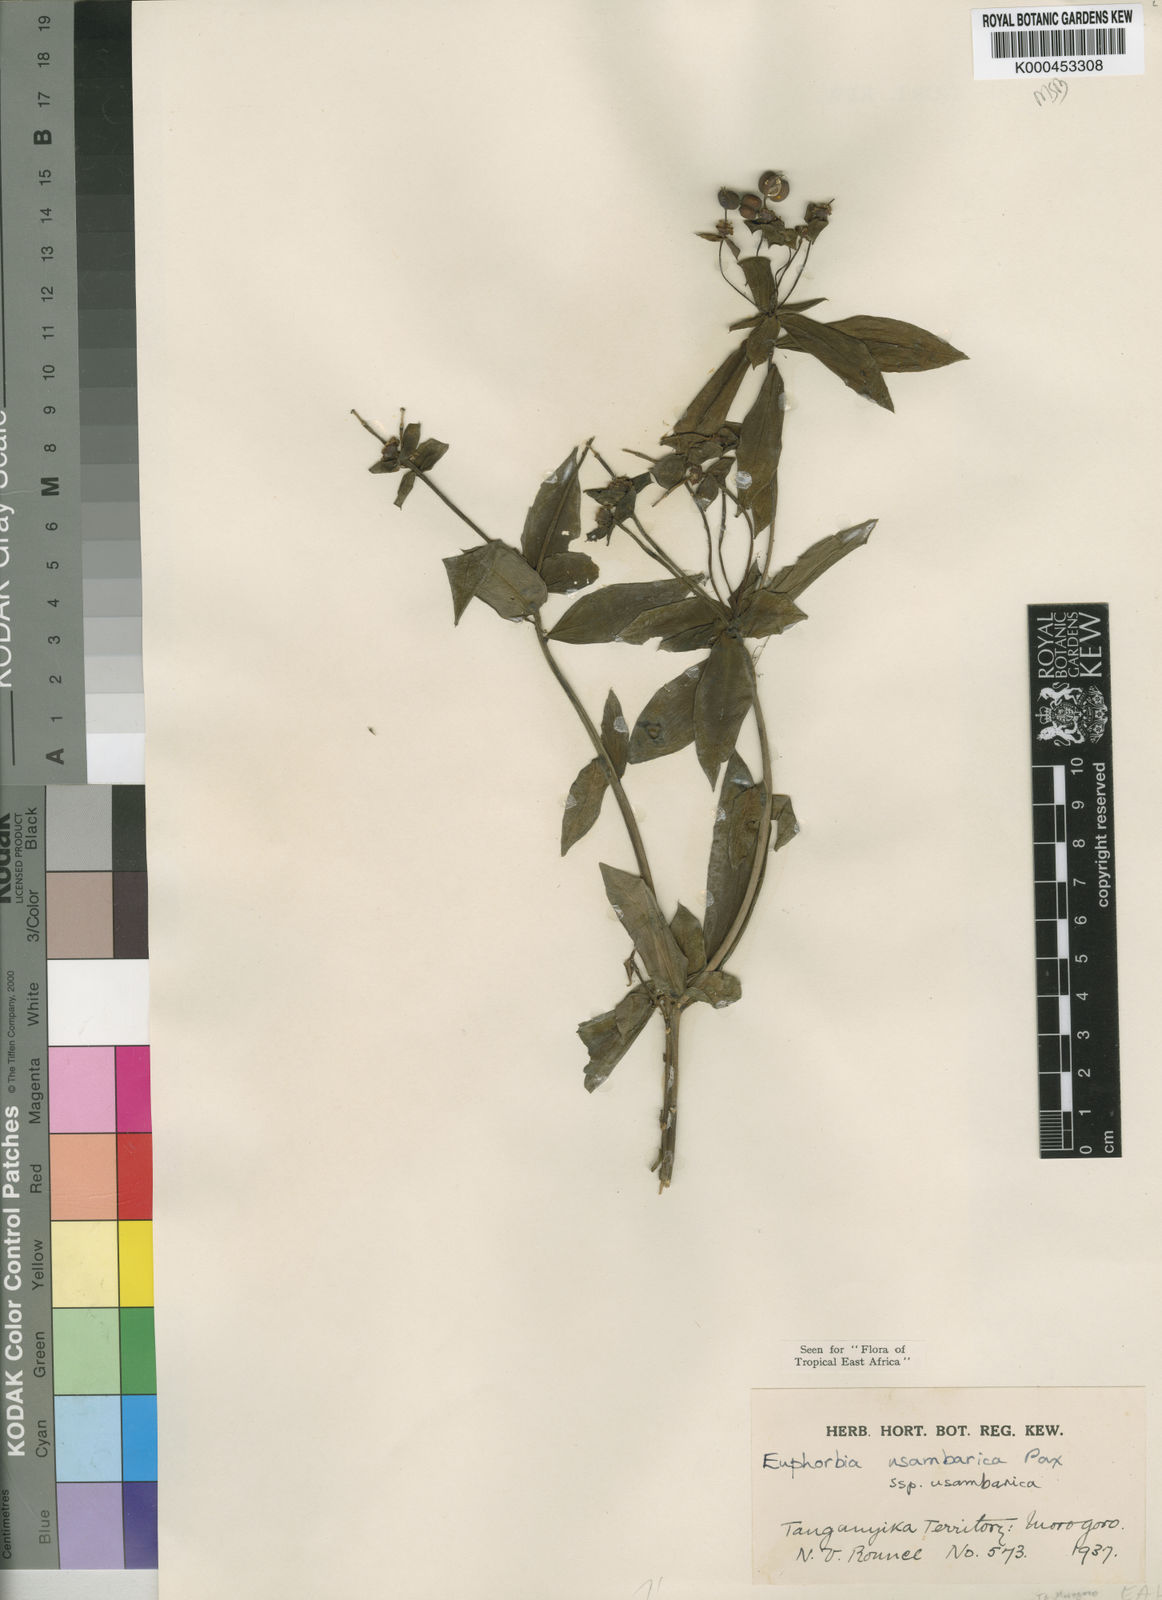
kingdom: Plantae
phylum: Tracheophyta
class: Magnoliopsida
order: Malpighiales
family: Euphorbiaceae
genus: Euphorbia
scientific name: Euphorbia usambarica
